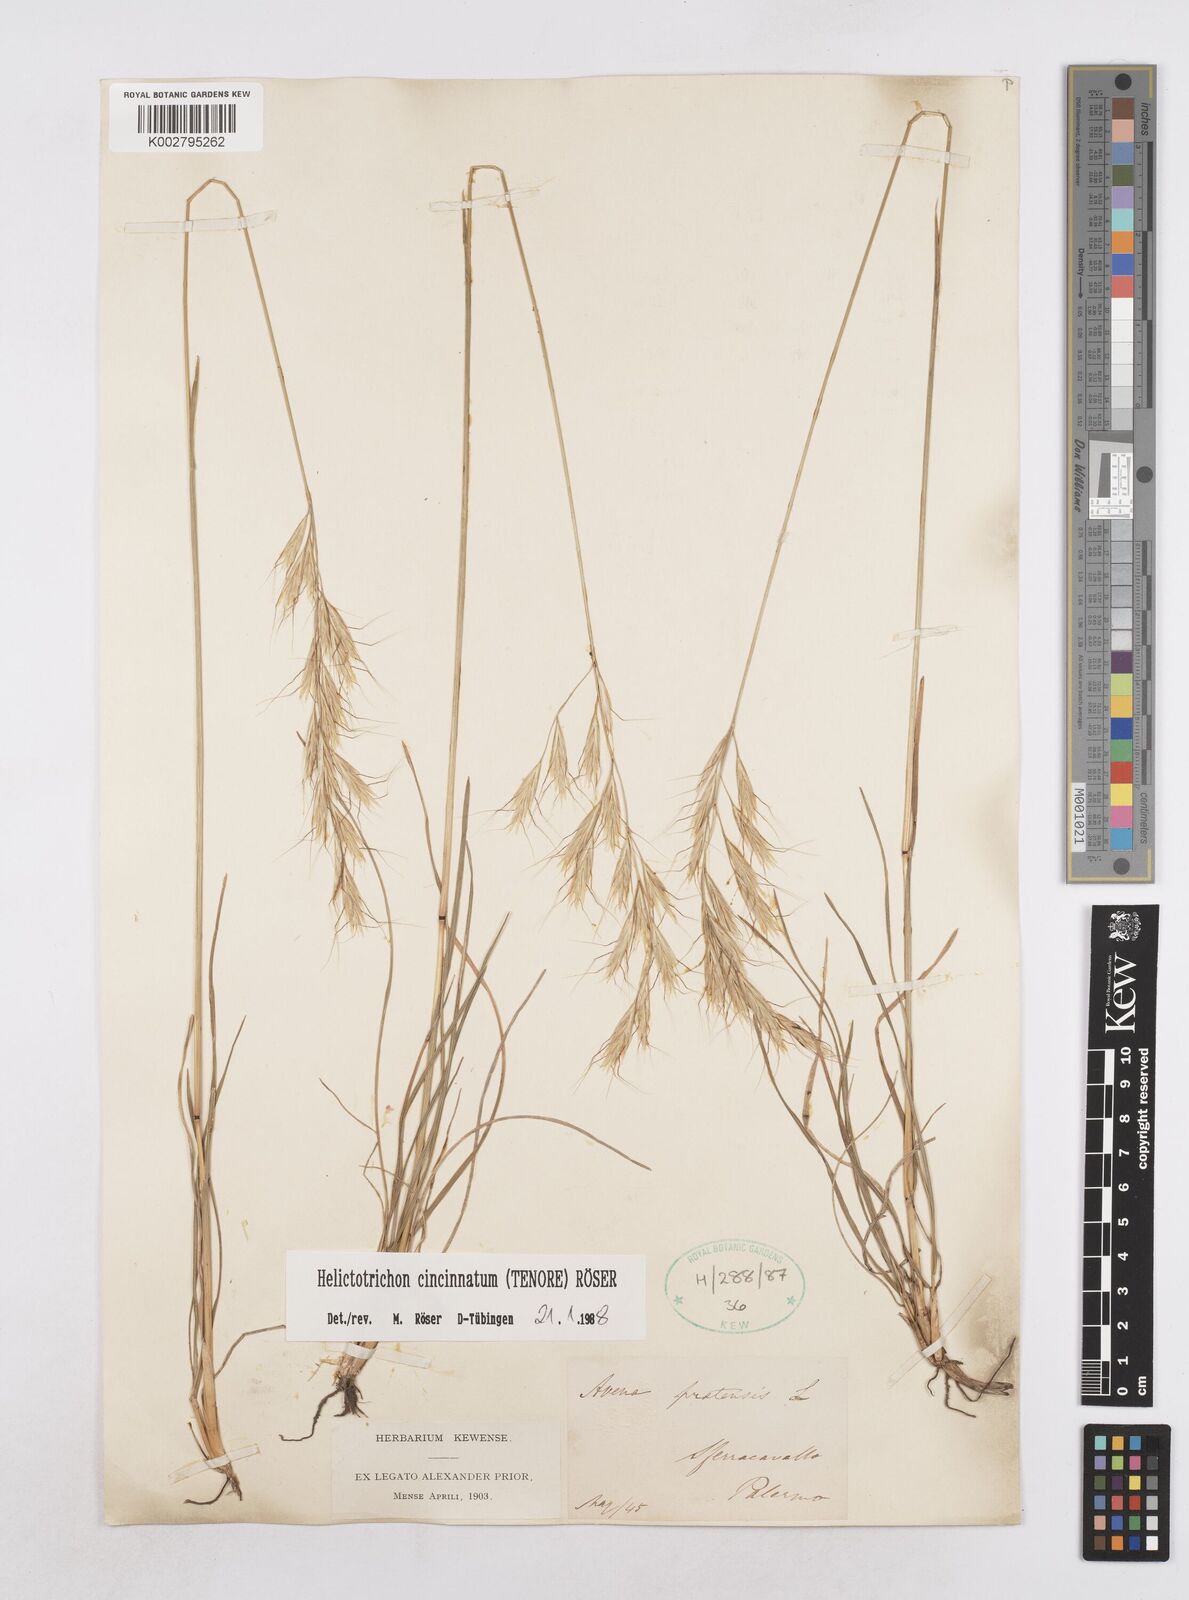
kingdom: Plantae
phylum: Tracheophyta
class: Liliopsida
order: Poales
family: Poaceae
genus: Helictochloa
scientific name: Helictochloa cincinnata
